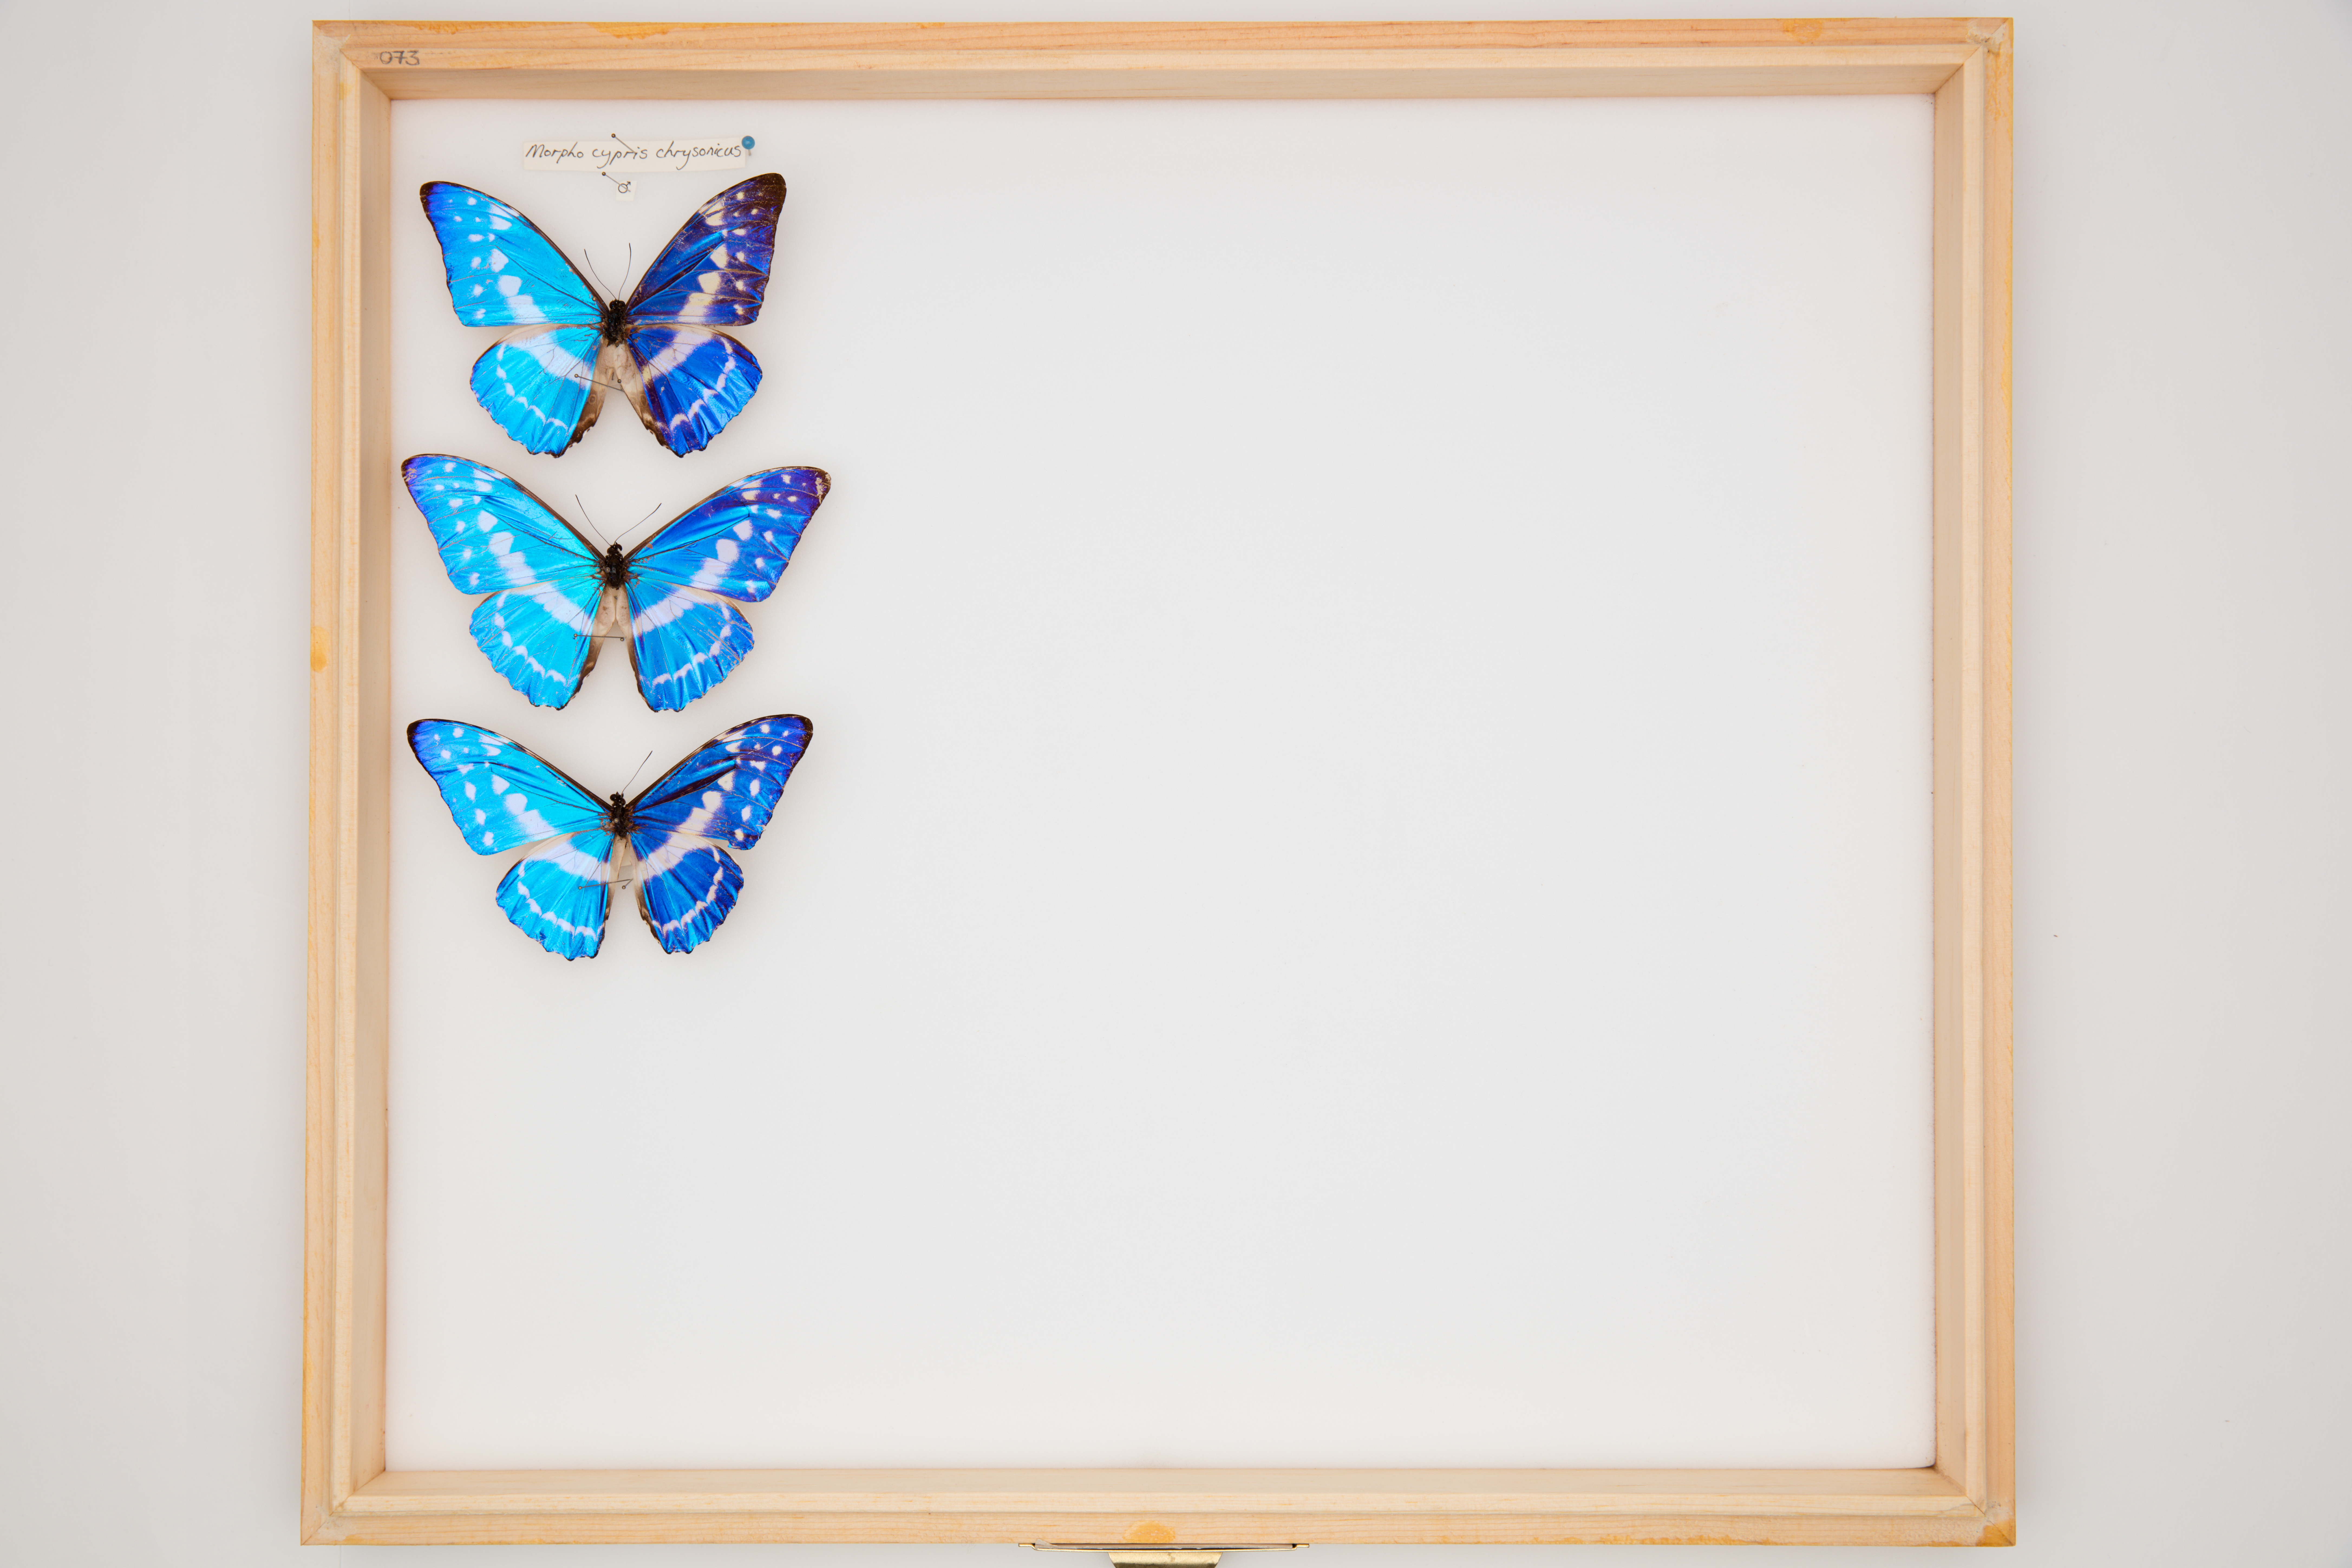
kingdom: Animalia
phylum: Arthropoda
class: Insecta
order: Lepidoptera
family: Nymphalidae
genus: Morpho
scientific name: Morpho cypris
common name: Cypris morpho
